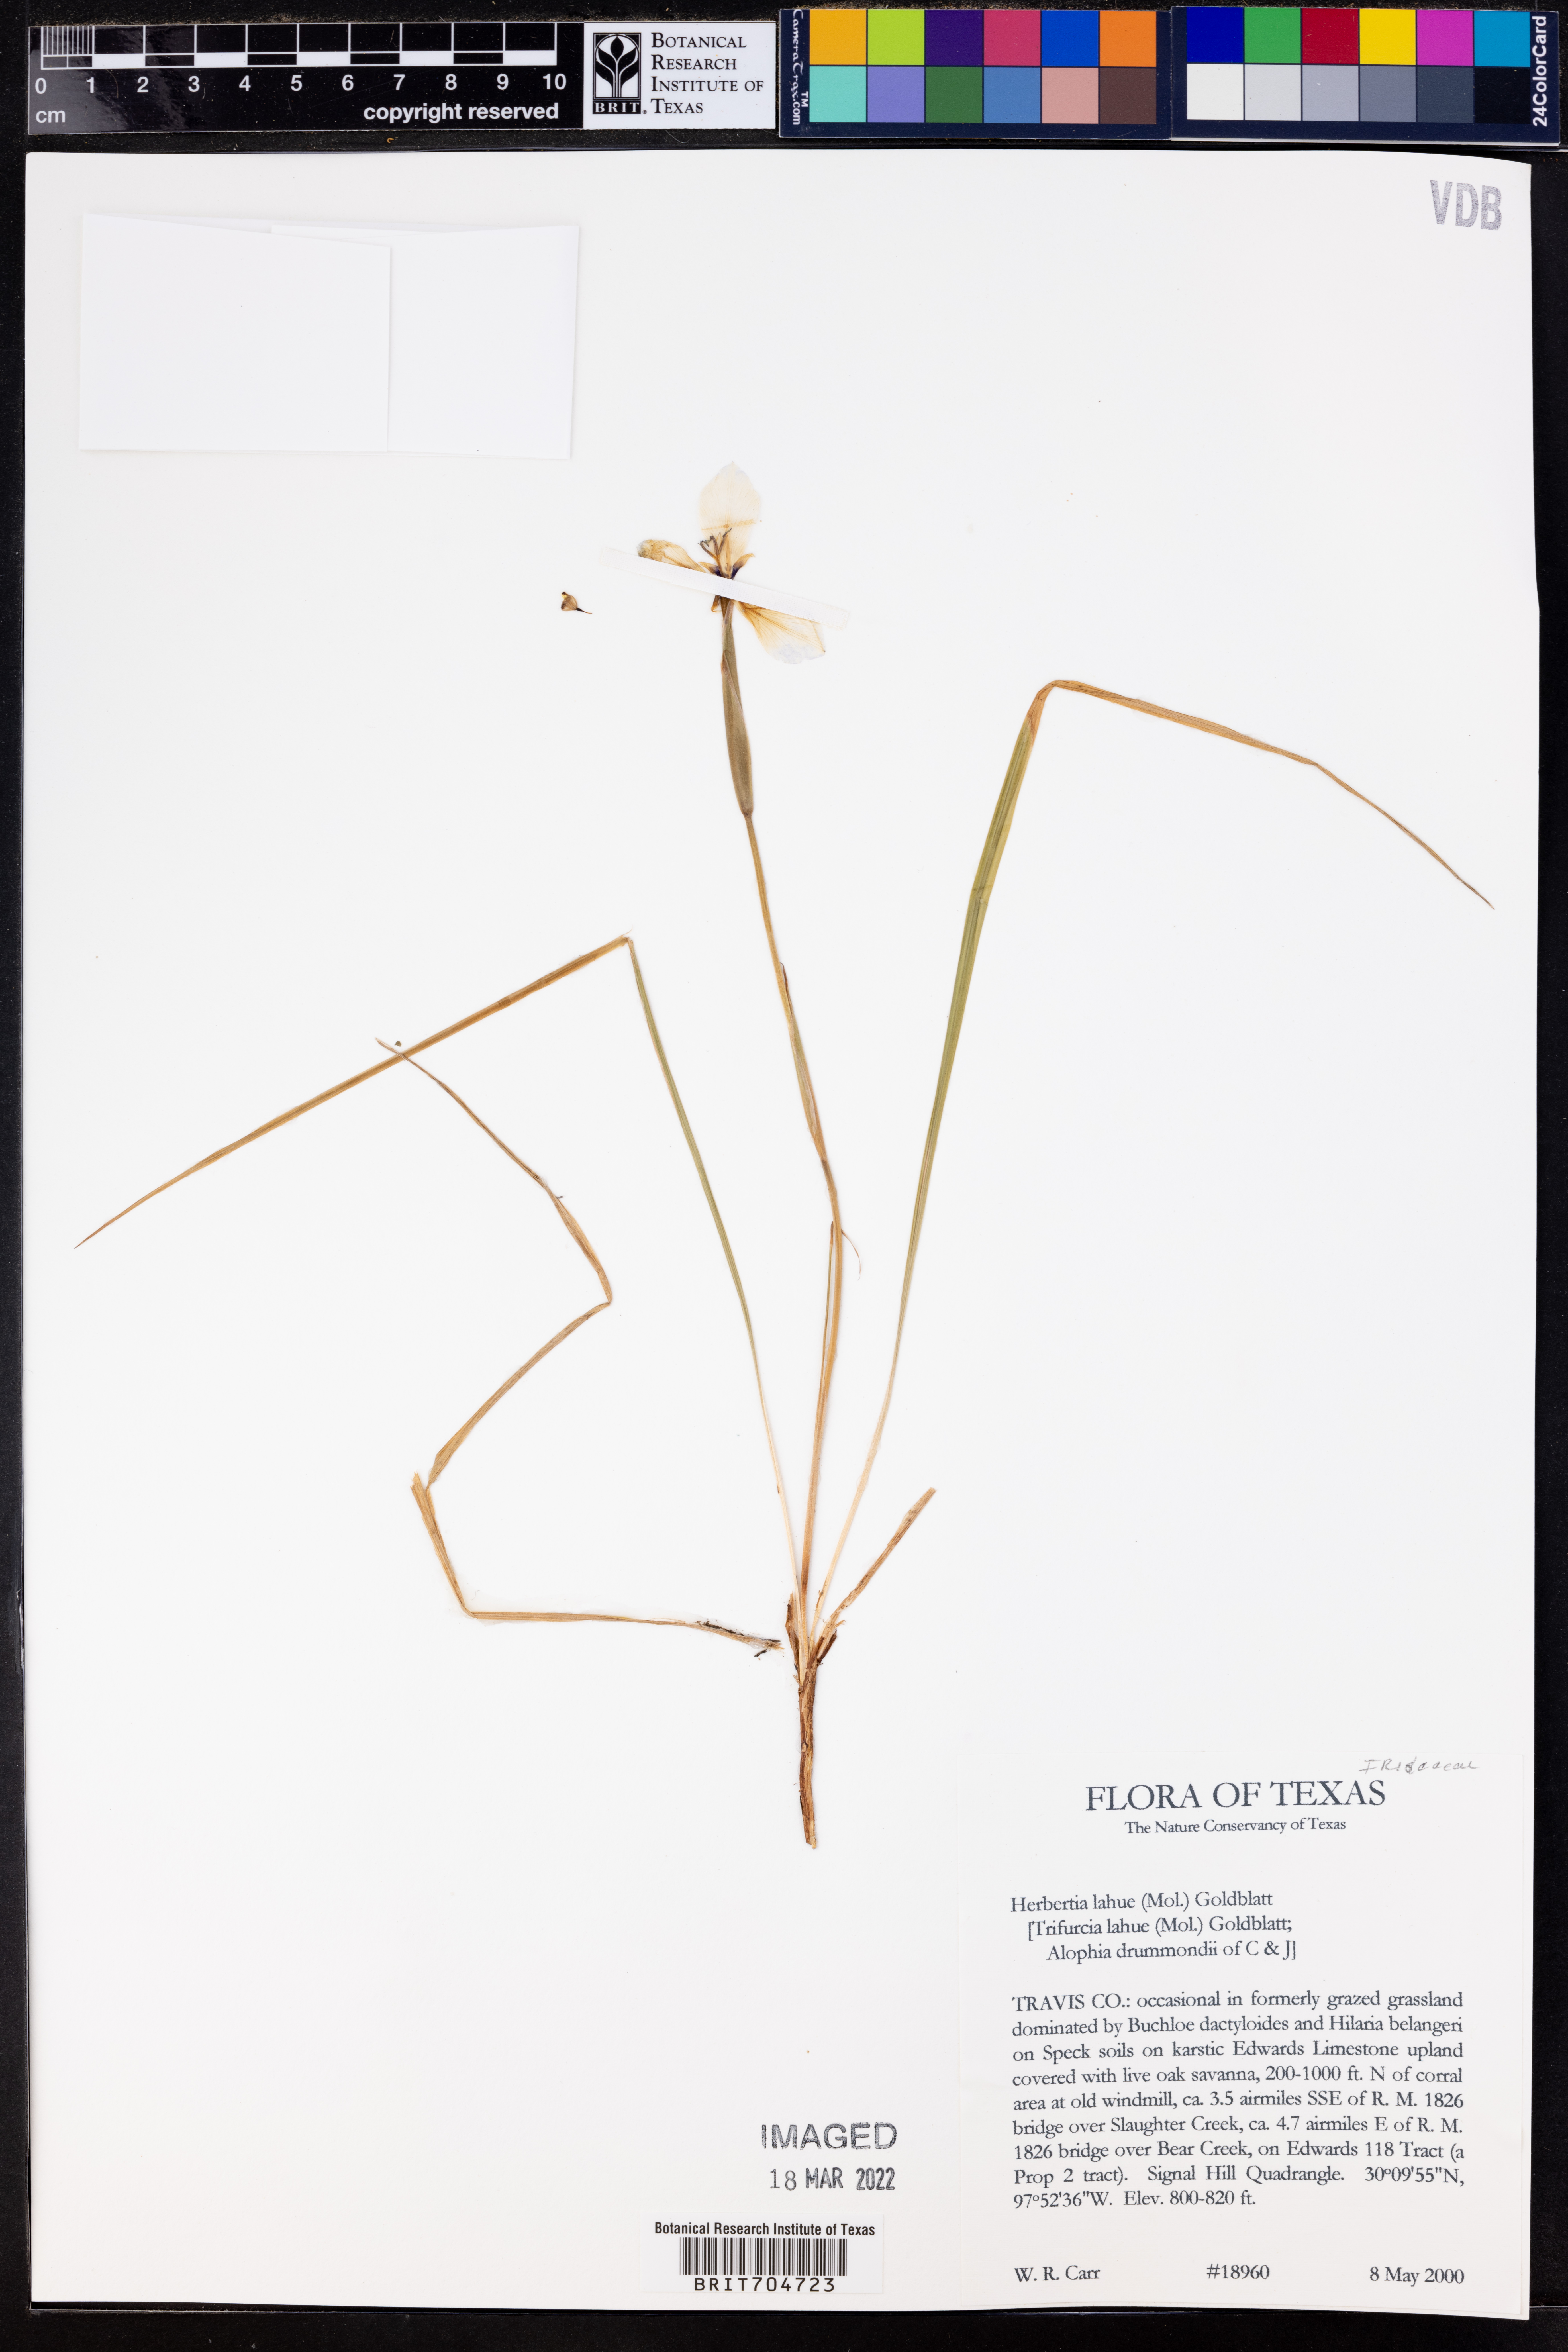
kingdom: Plantae
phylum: Tracheophyta
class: Liliopsida
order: Asparagales
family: Iridaceae
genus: Herbertia
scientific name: Herbertia lahue
